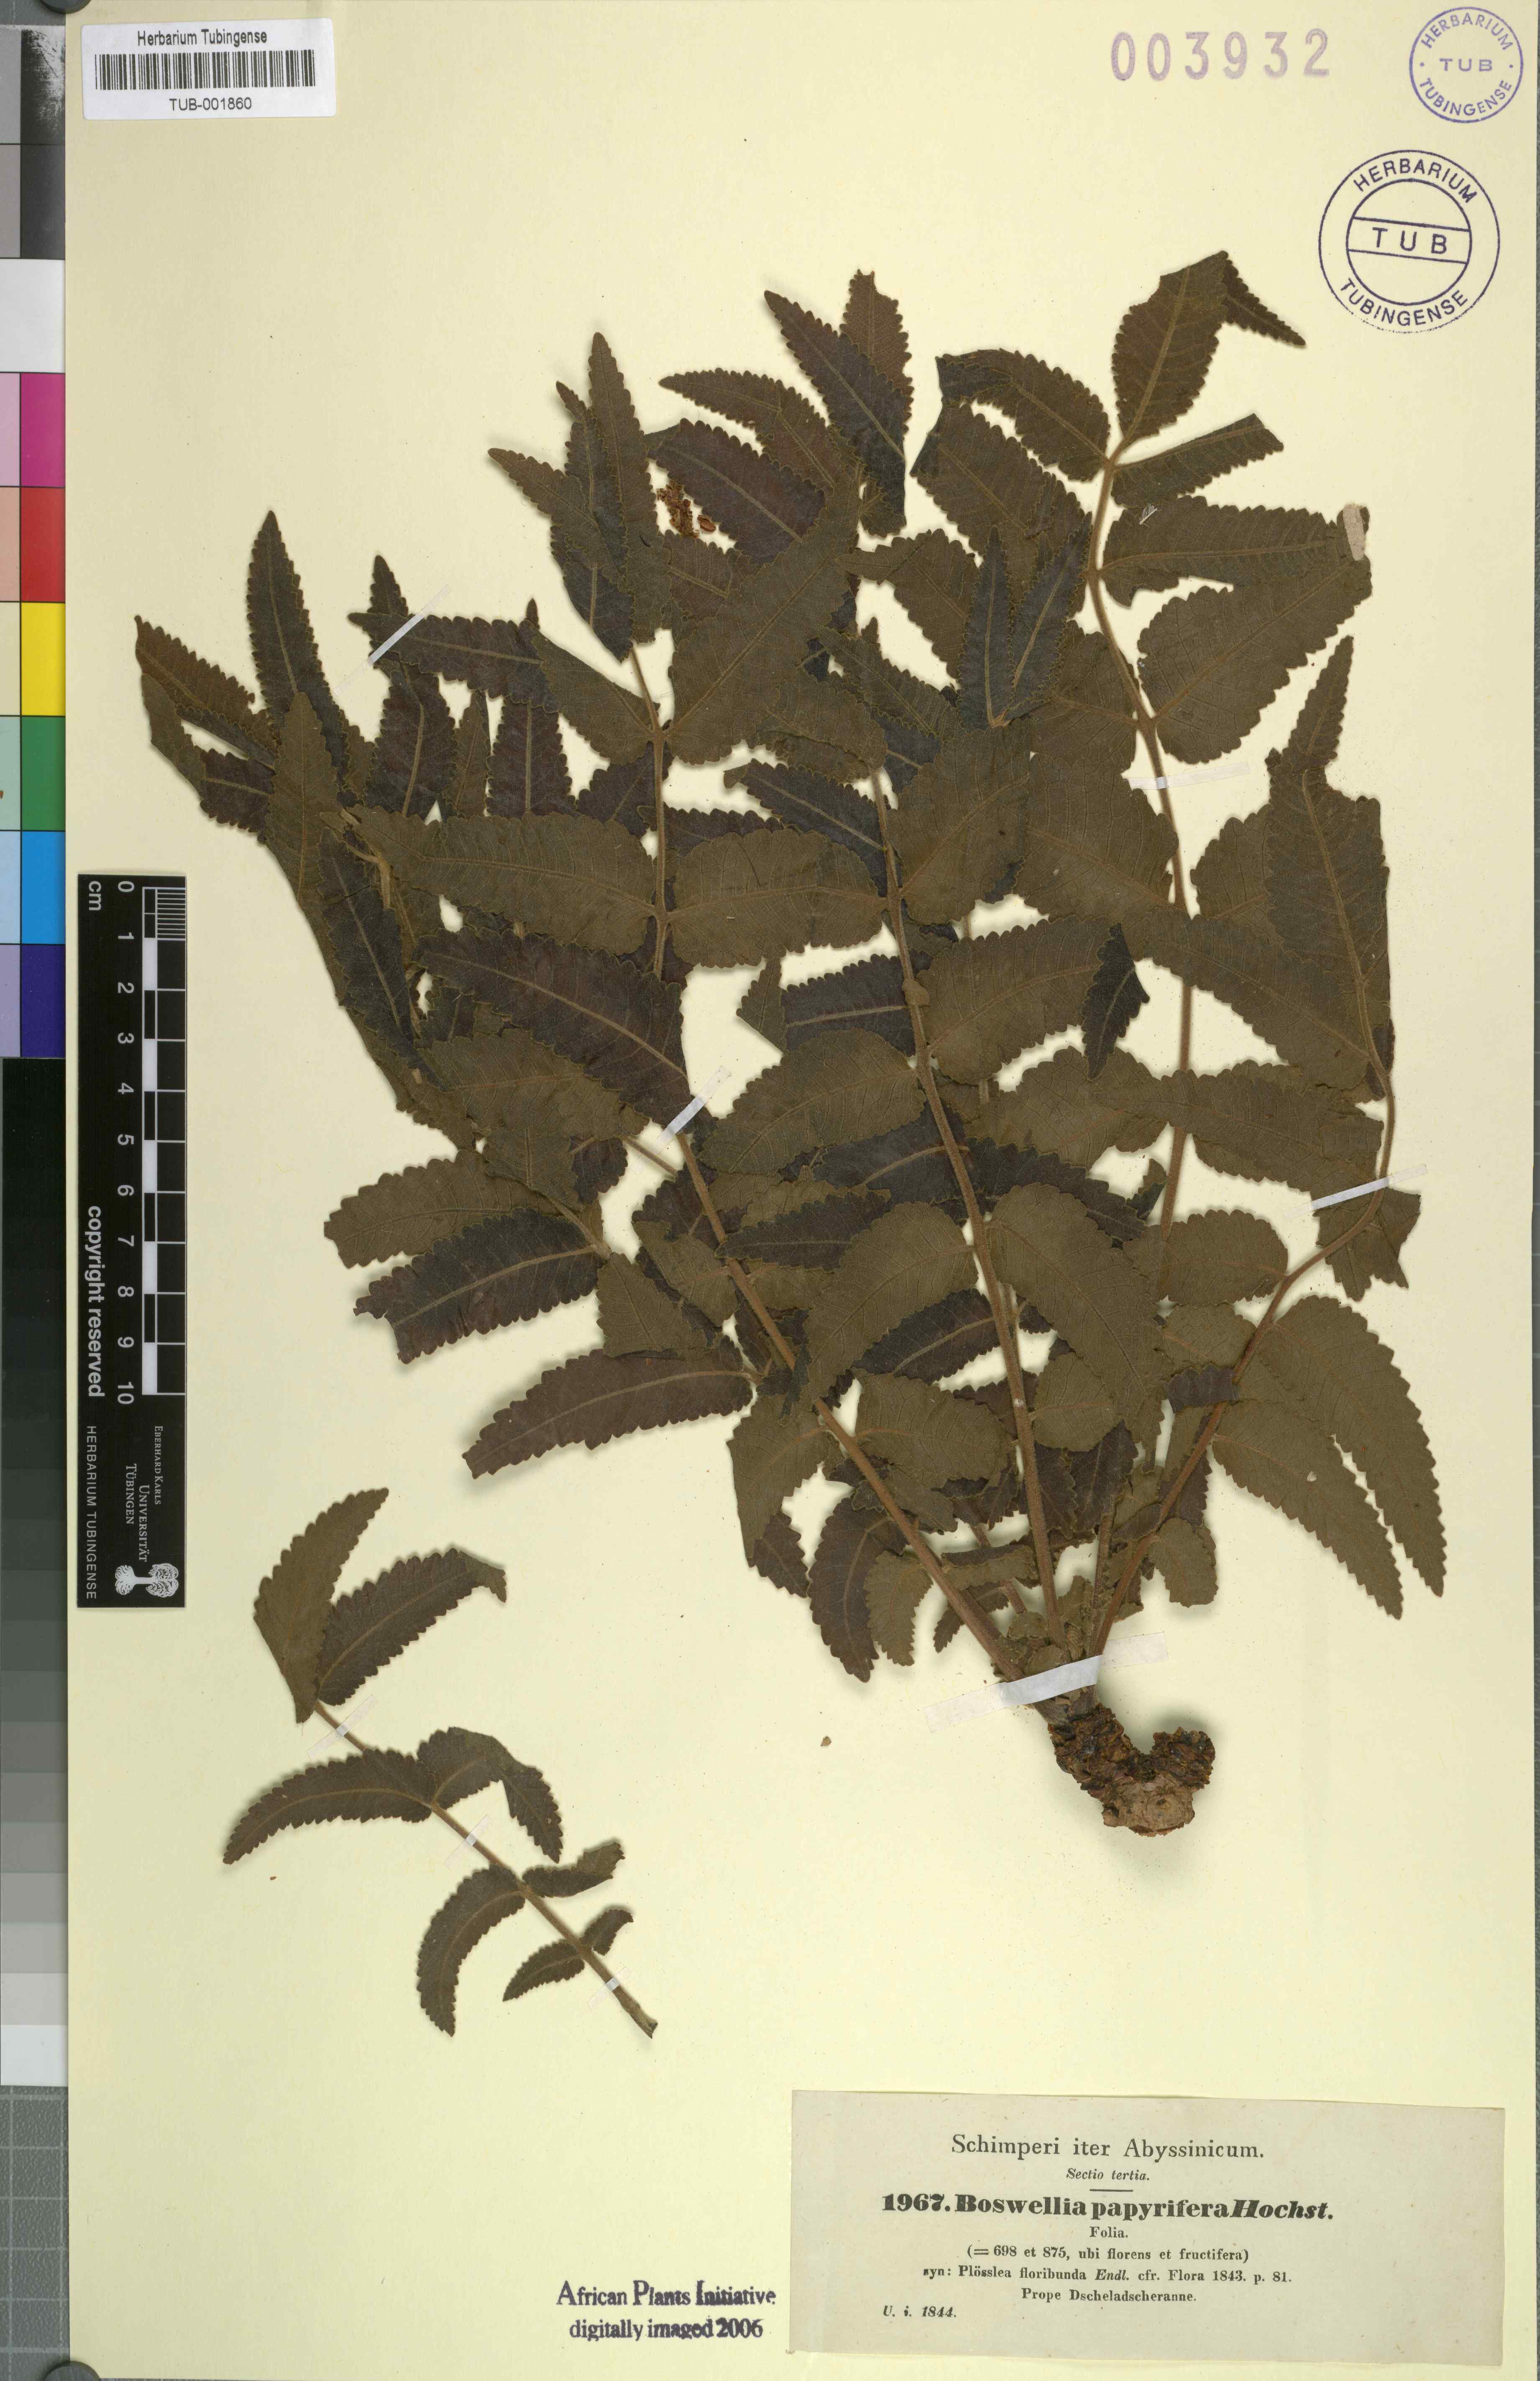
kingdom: Plantae
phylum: Tracheophyta
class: Magnoliopsida
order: Sapindales
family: Burseraceae
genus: Boswellia
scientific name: Boswellia papyrifera
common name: Sudanese frankincense
